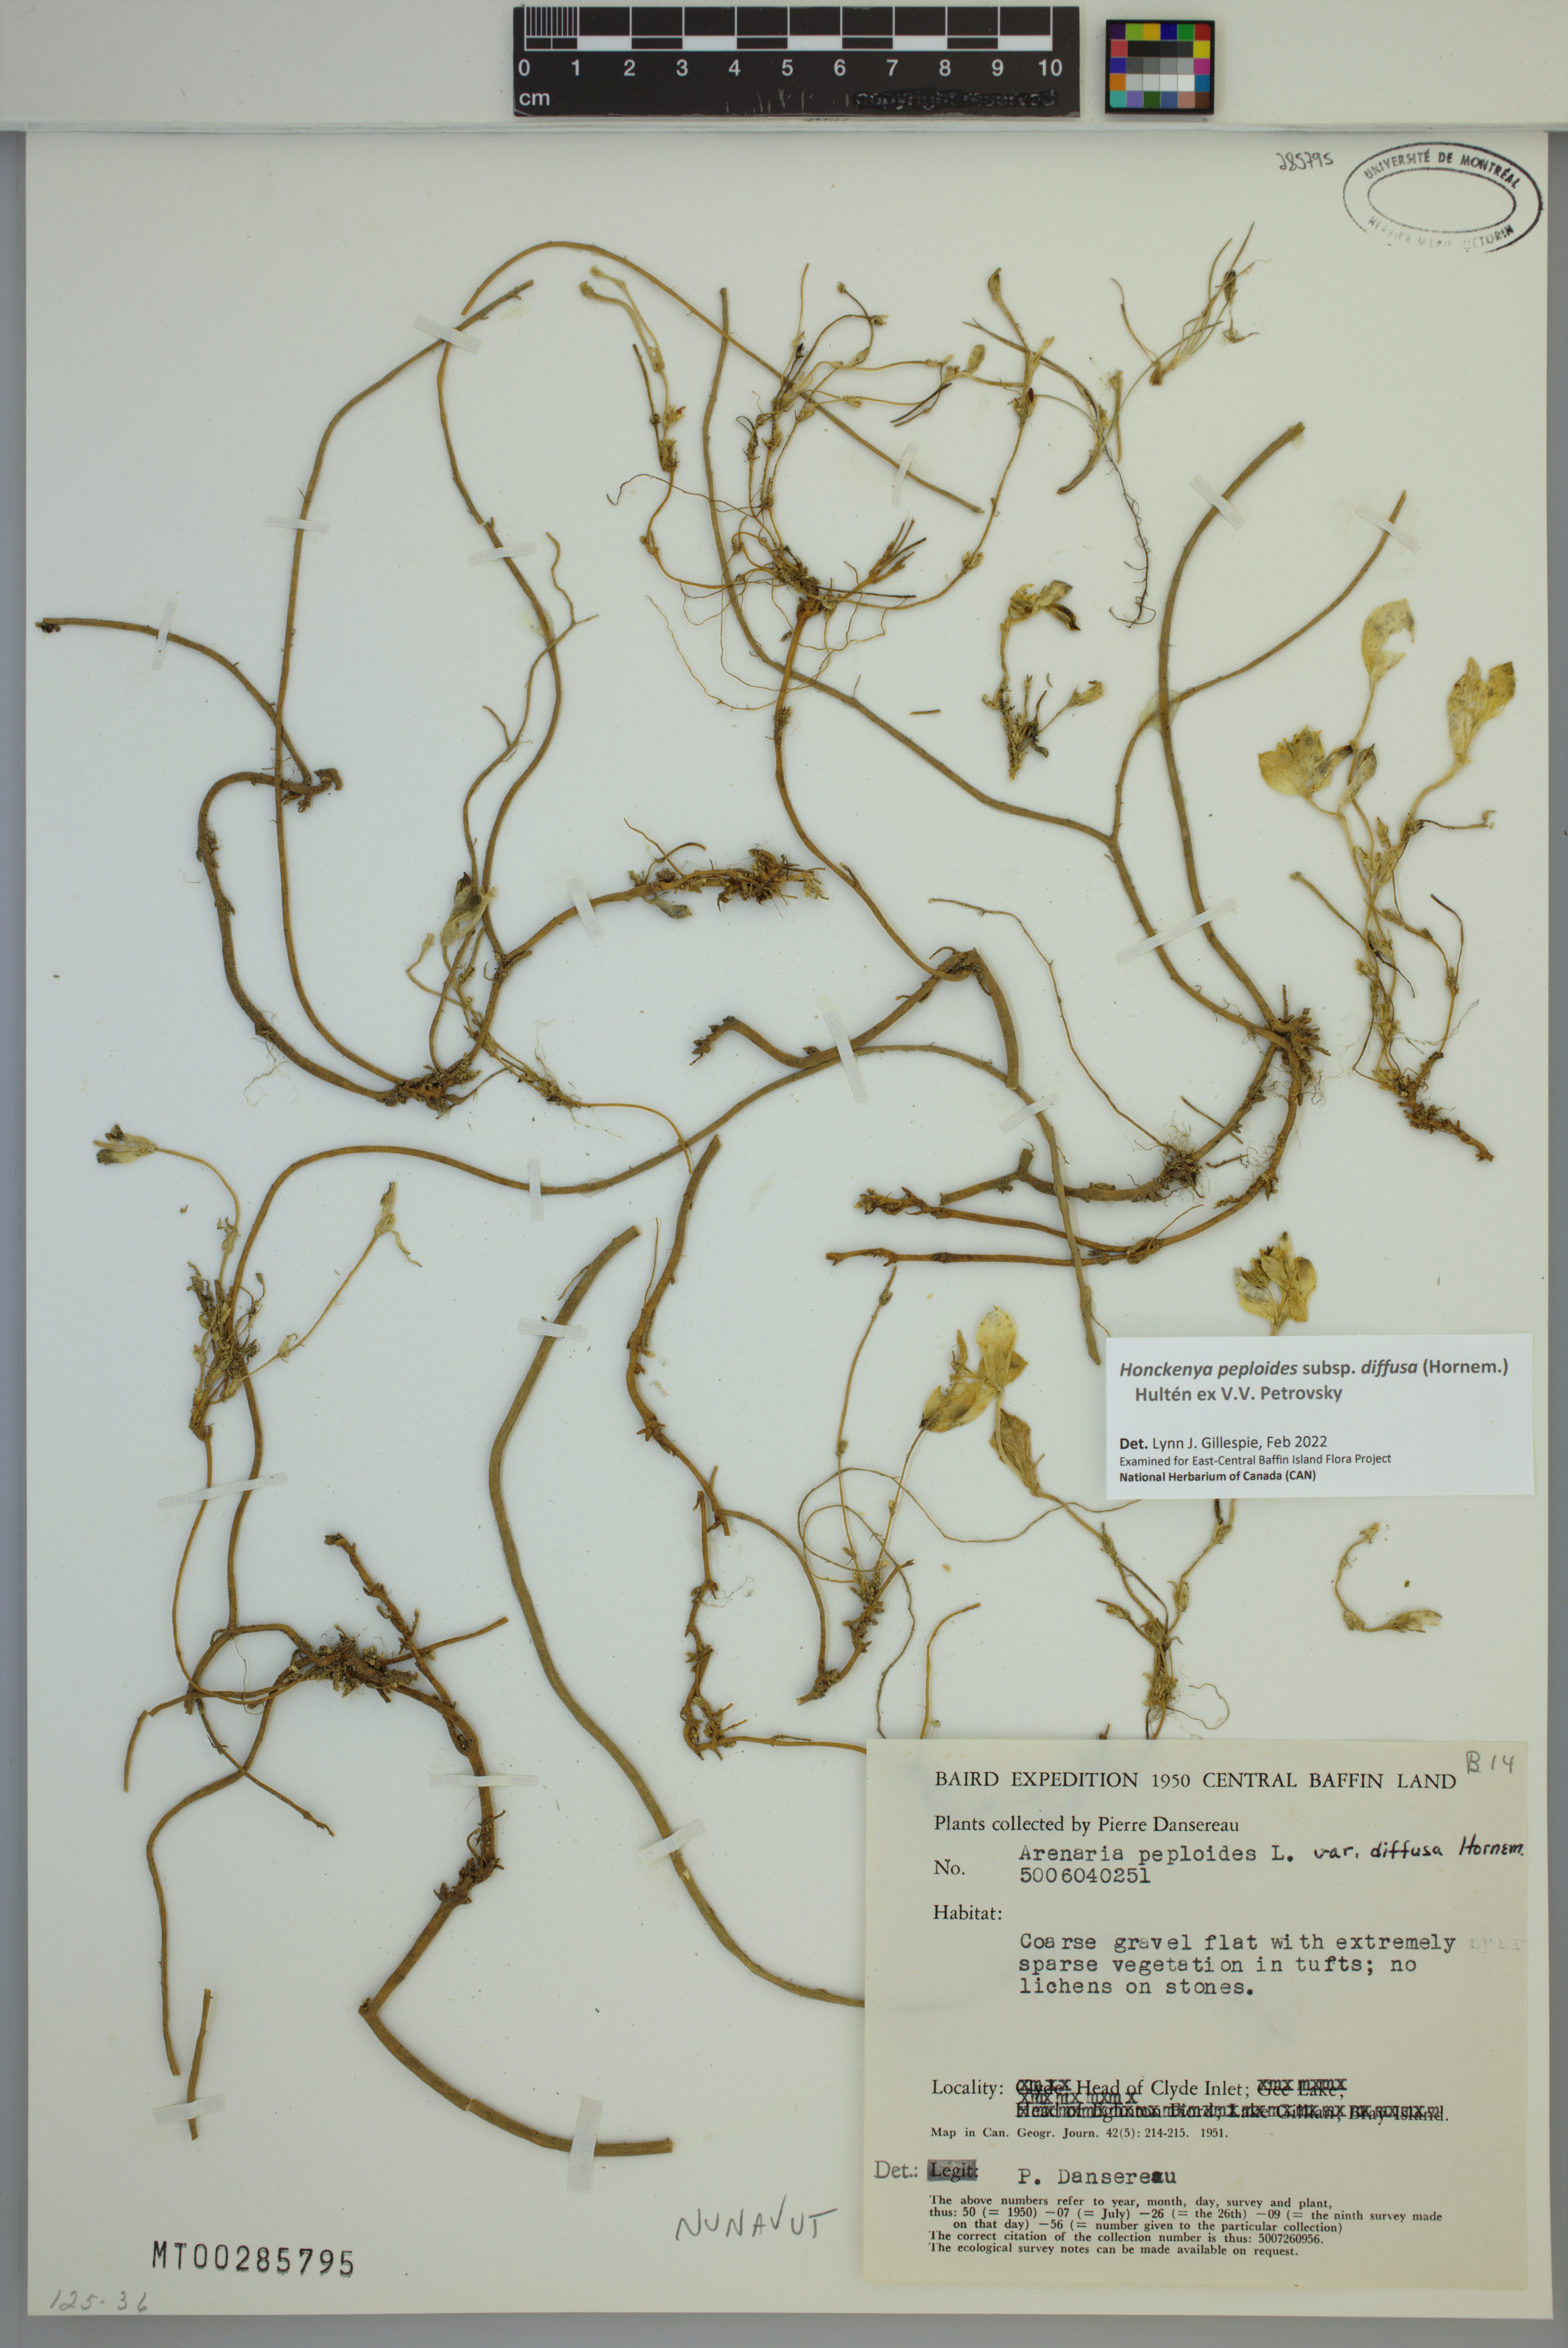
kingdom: Plantae
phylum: Tracheophyta
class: Magnoliopsida
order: Caryophyllales
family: Caryophyllaceae
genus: Honckenya
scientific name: Honckenya peploides
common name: Sea sandwort
